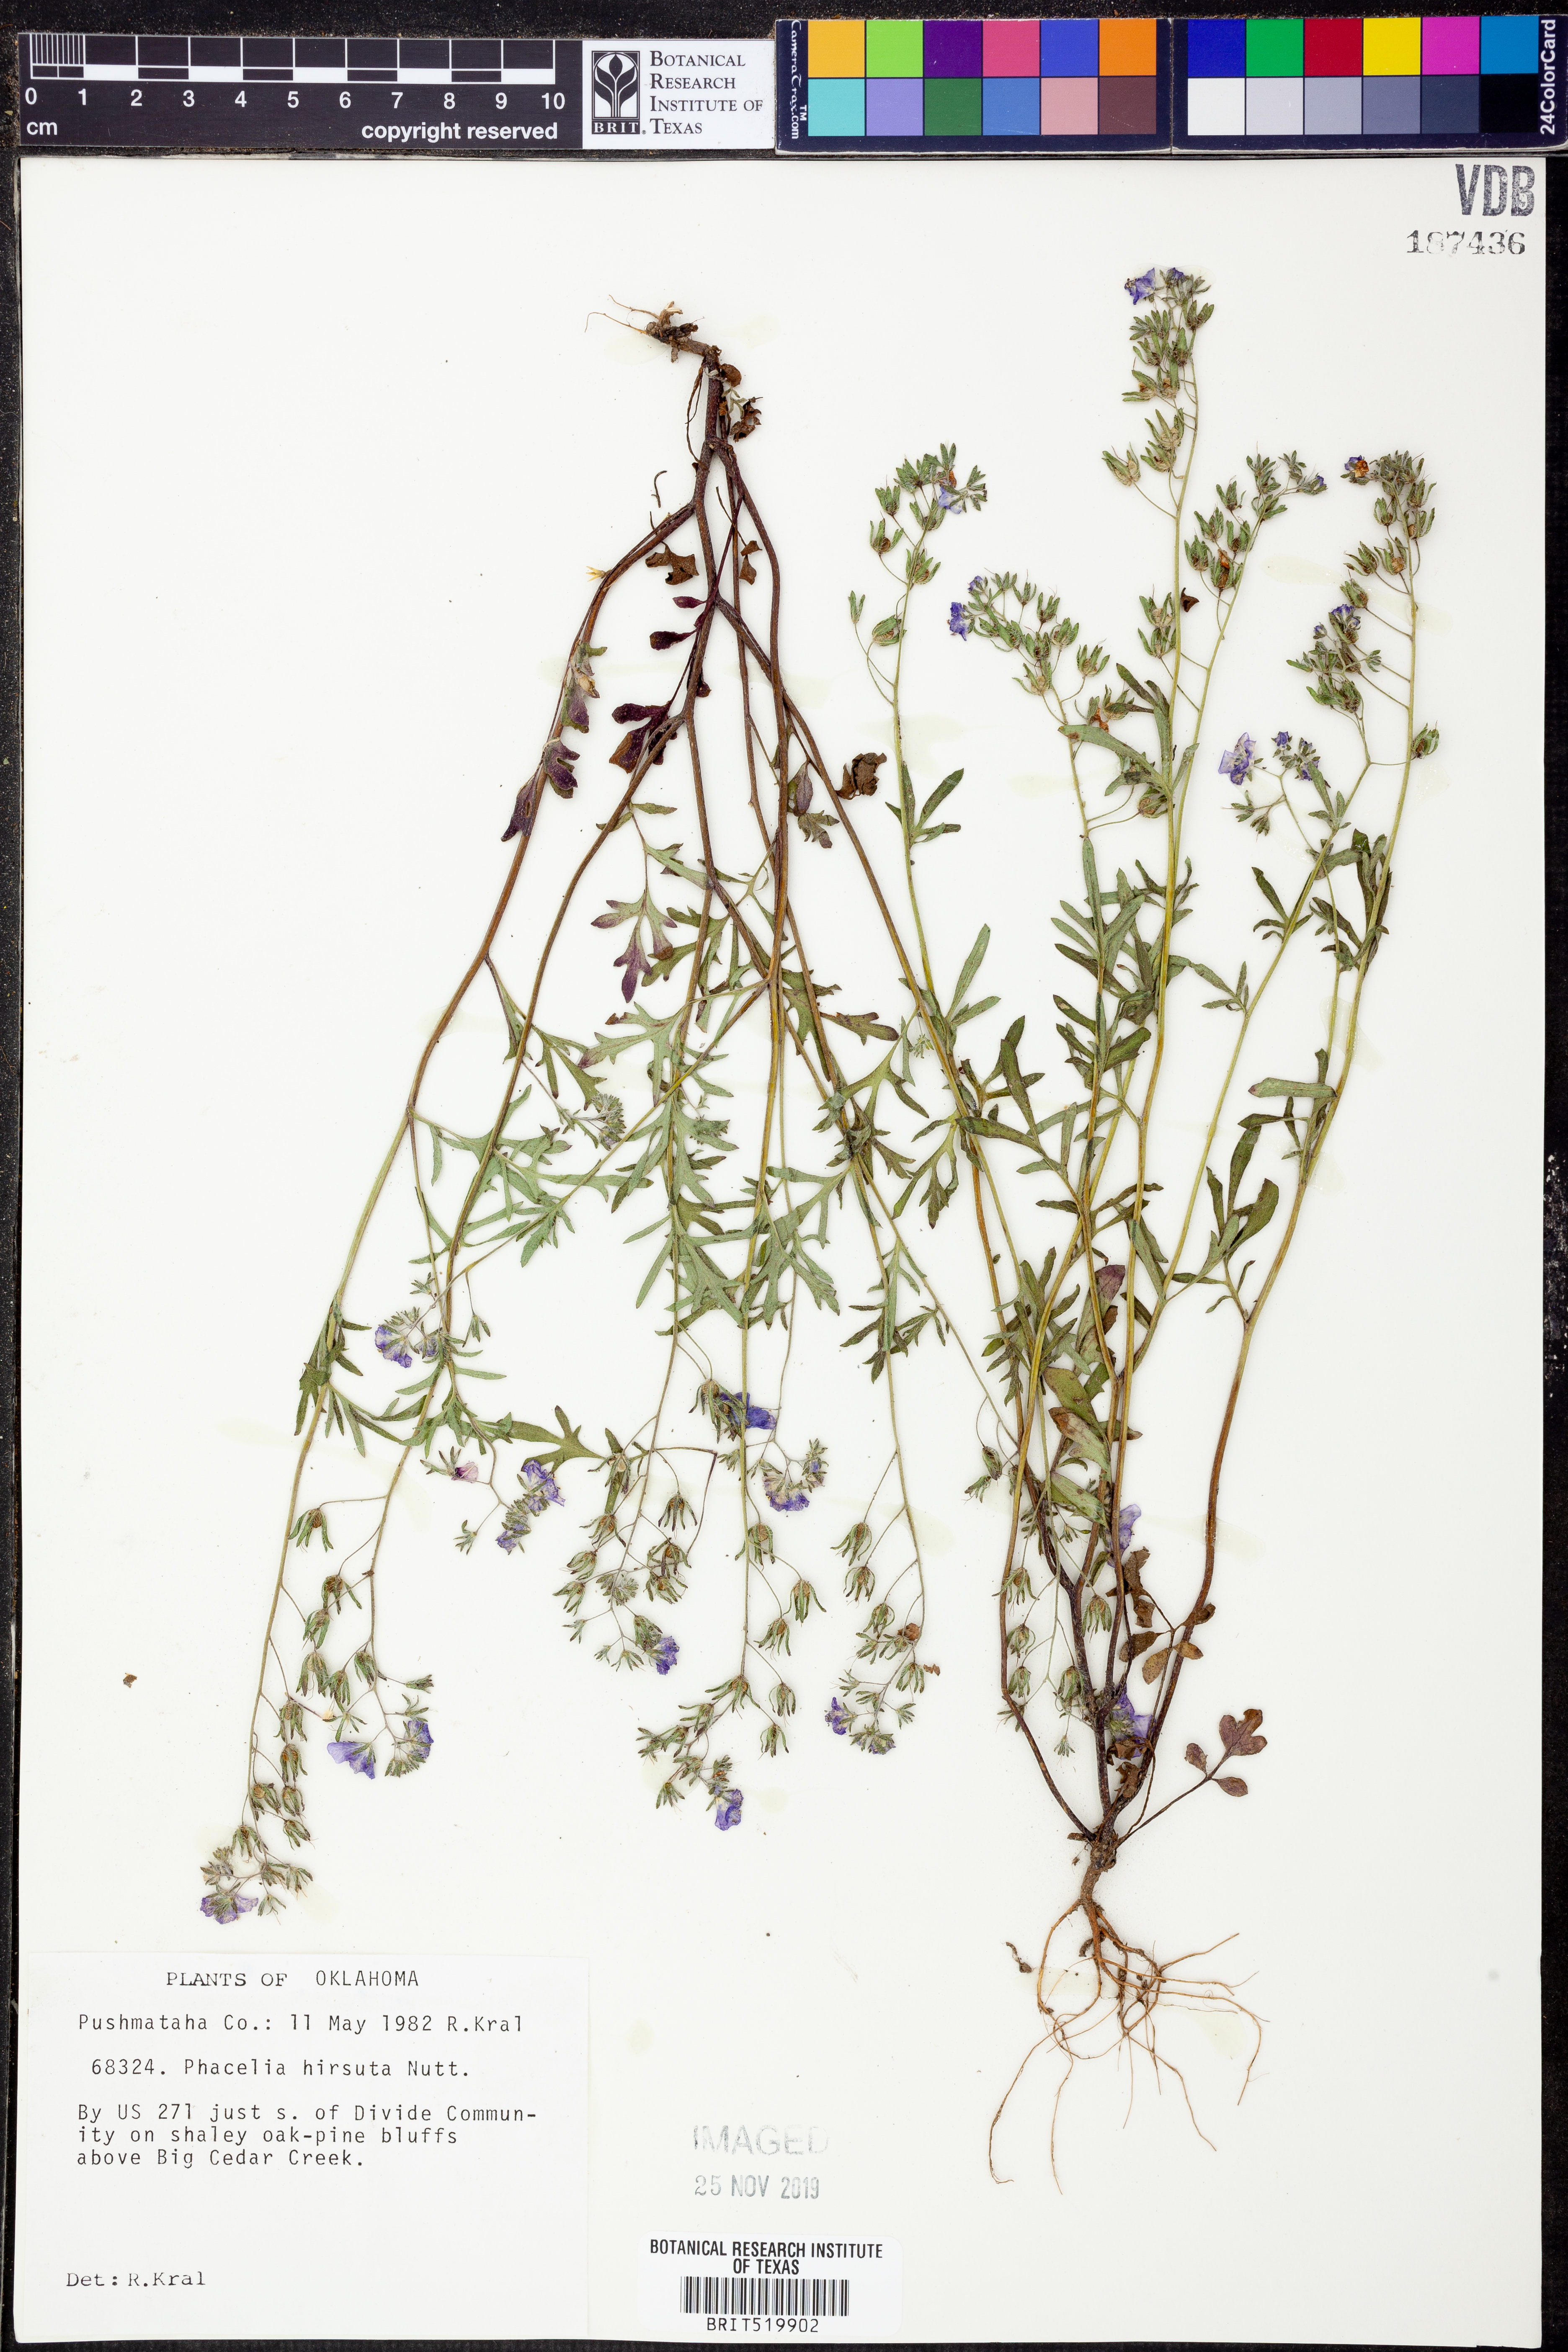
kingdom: Plantae
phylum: Tracheophyta
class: Magnoliopsida
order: Boraginales
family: Hydrophyllaceae
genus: Phacelia
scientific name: Phacelia hirsuta
